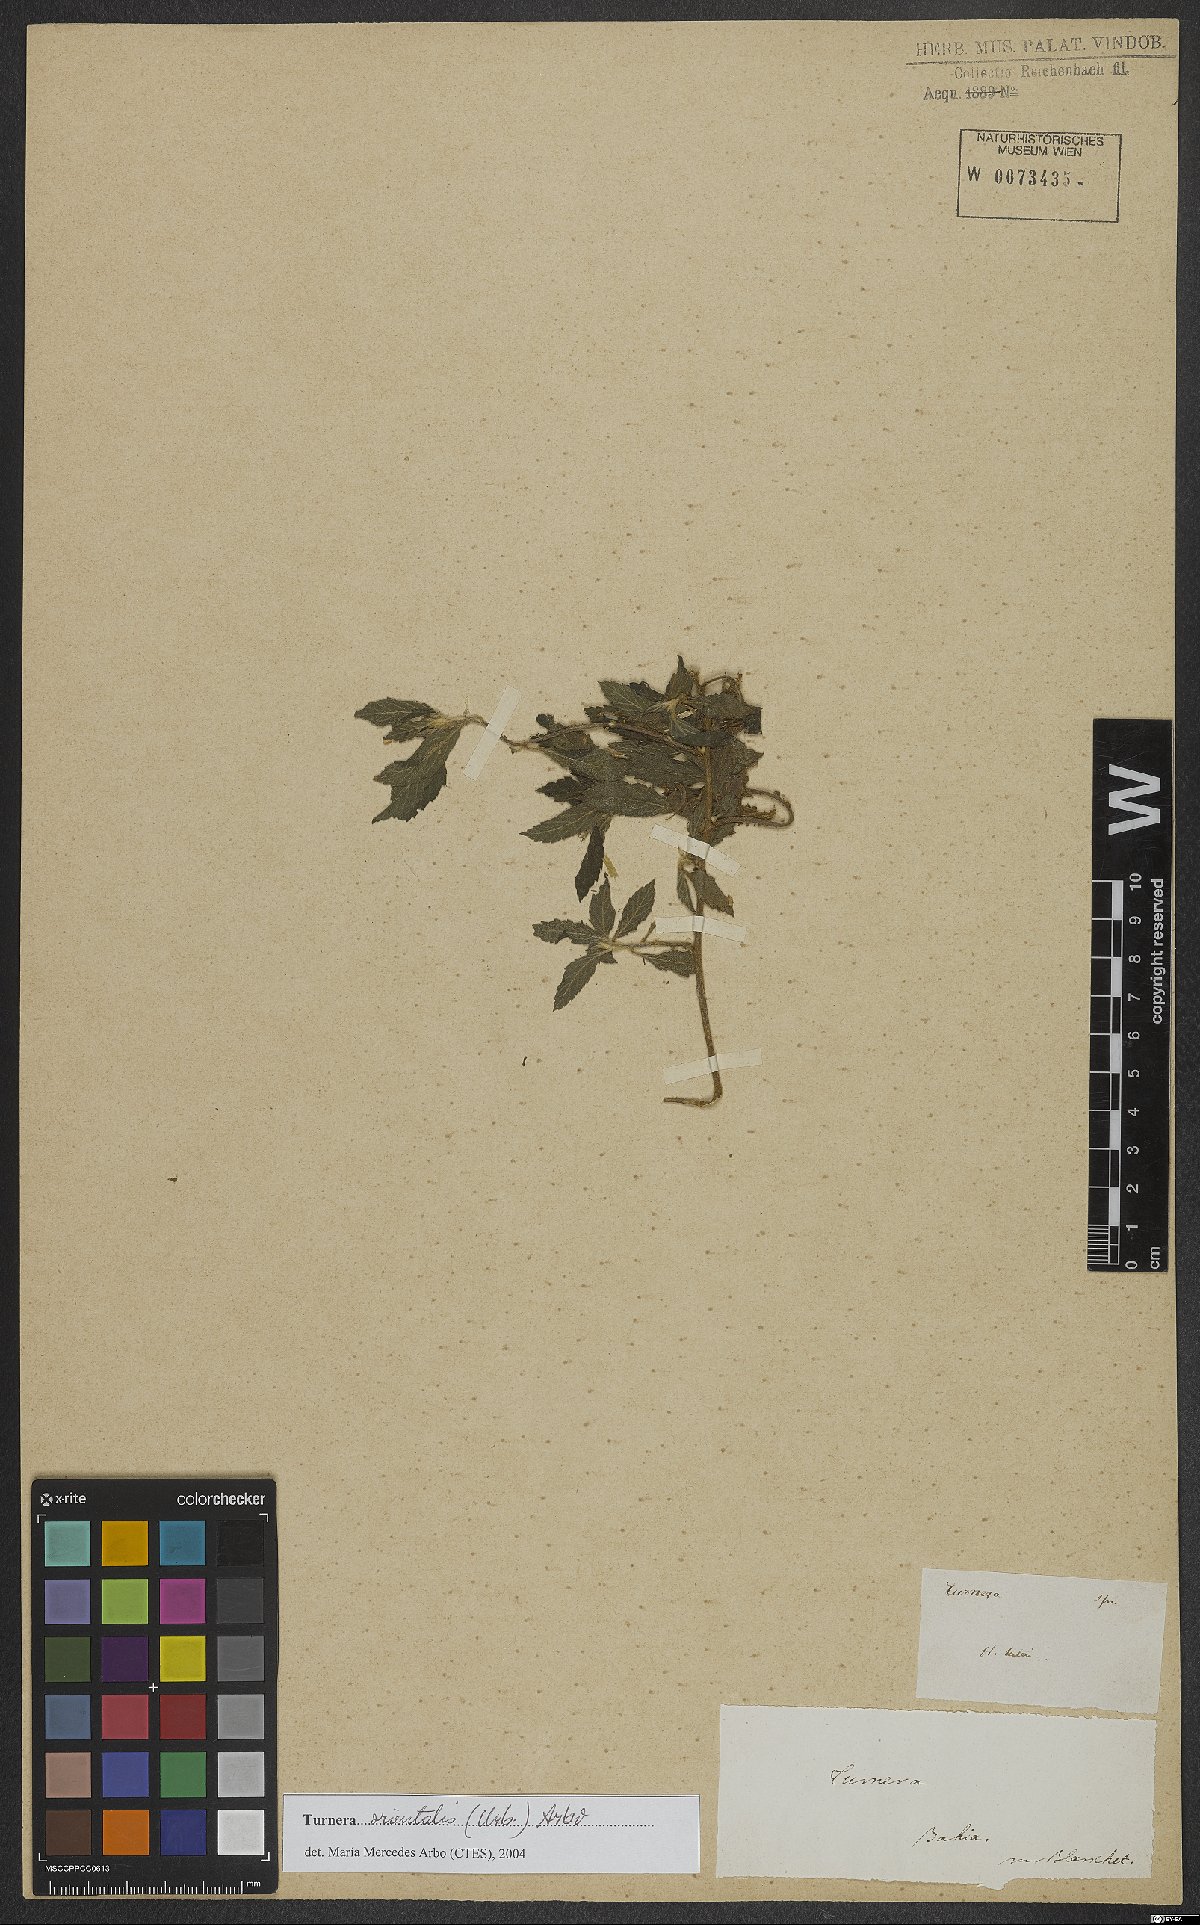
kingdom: Plantae
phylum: Tracheophyta
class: Magnoliopsida
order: Malpighiales
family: Turneraceae
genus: Turnera
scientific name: Turnera orientalis
